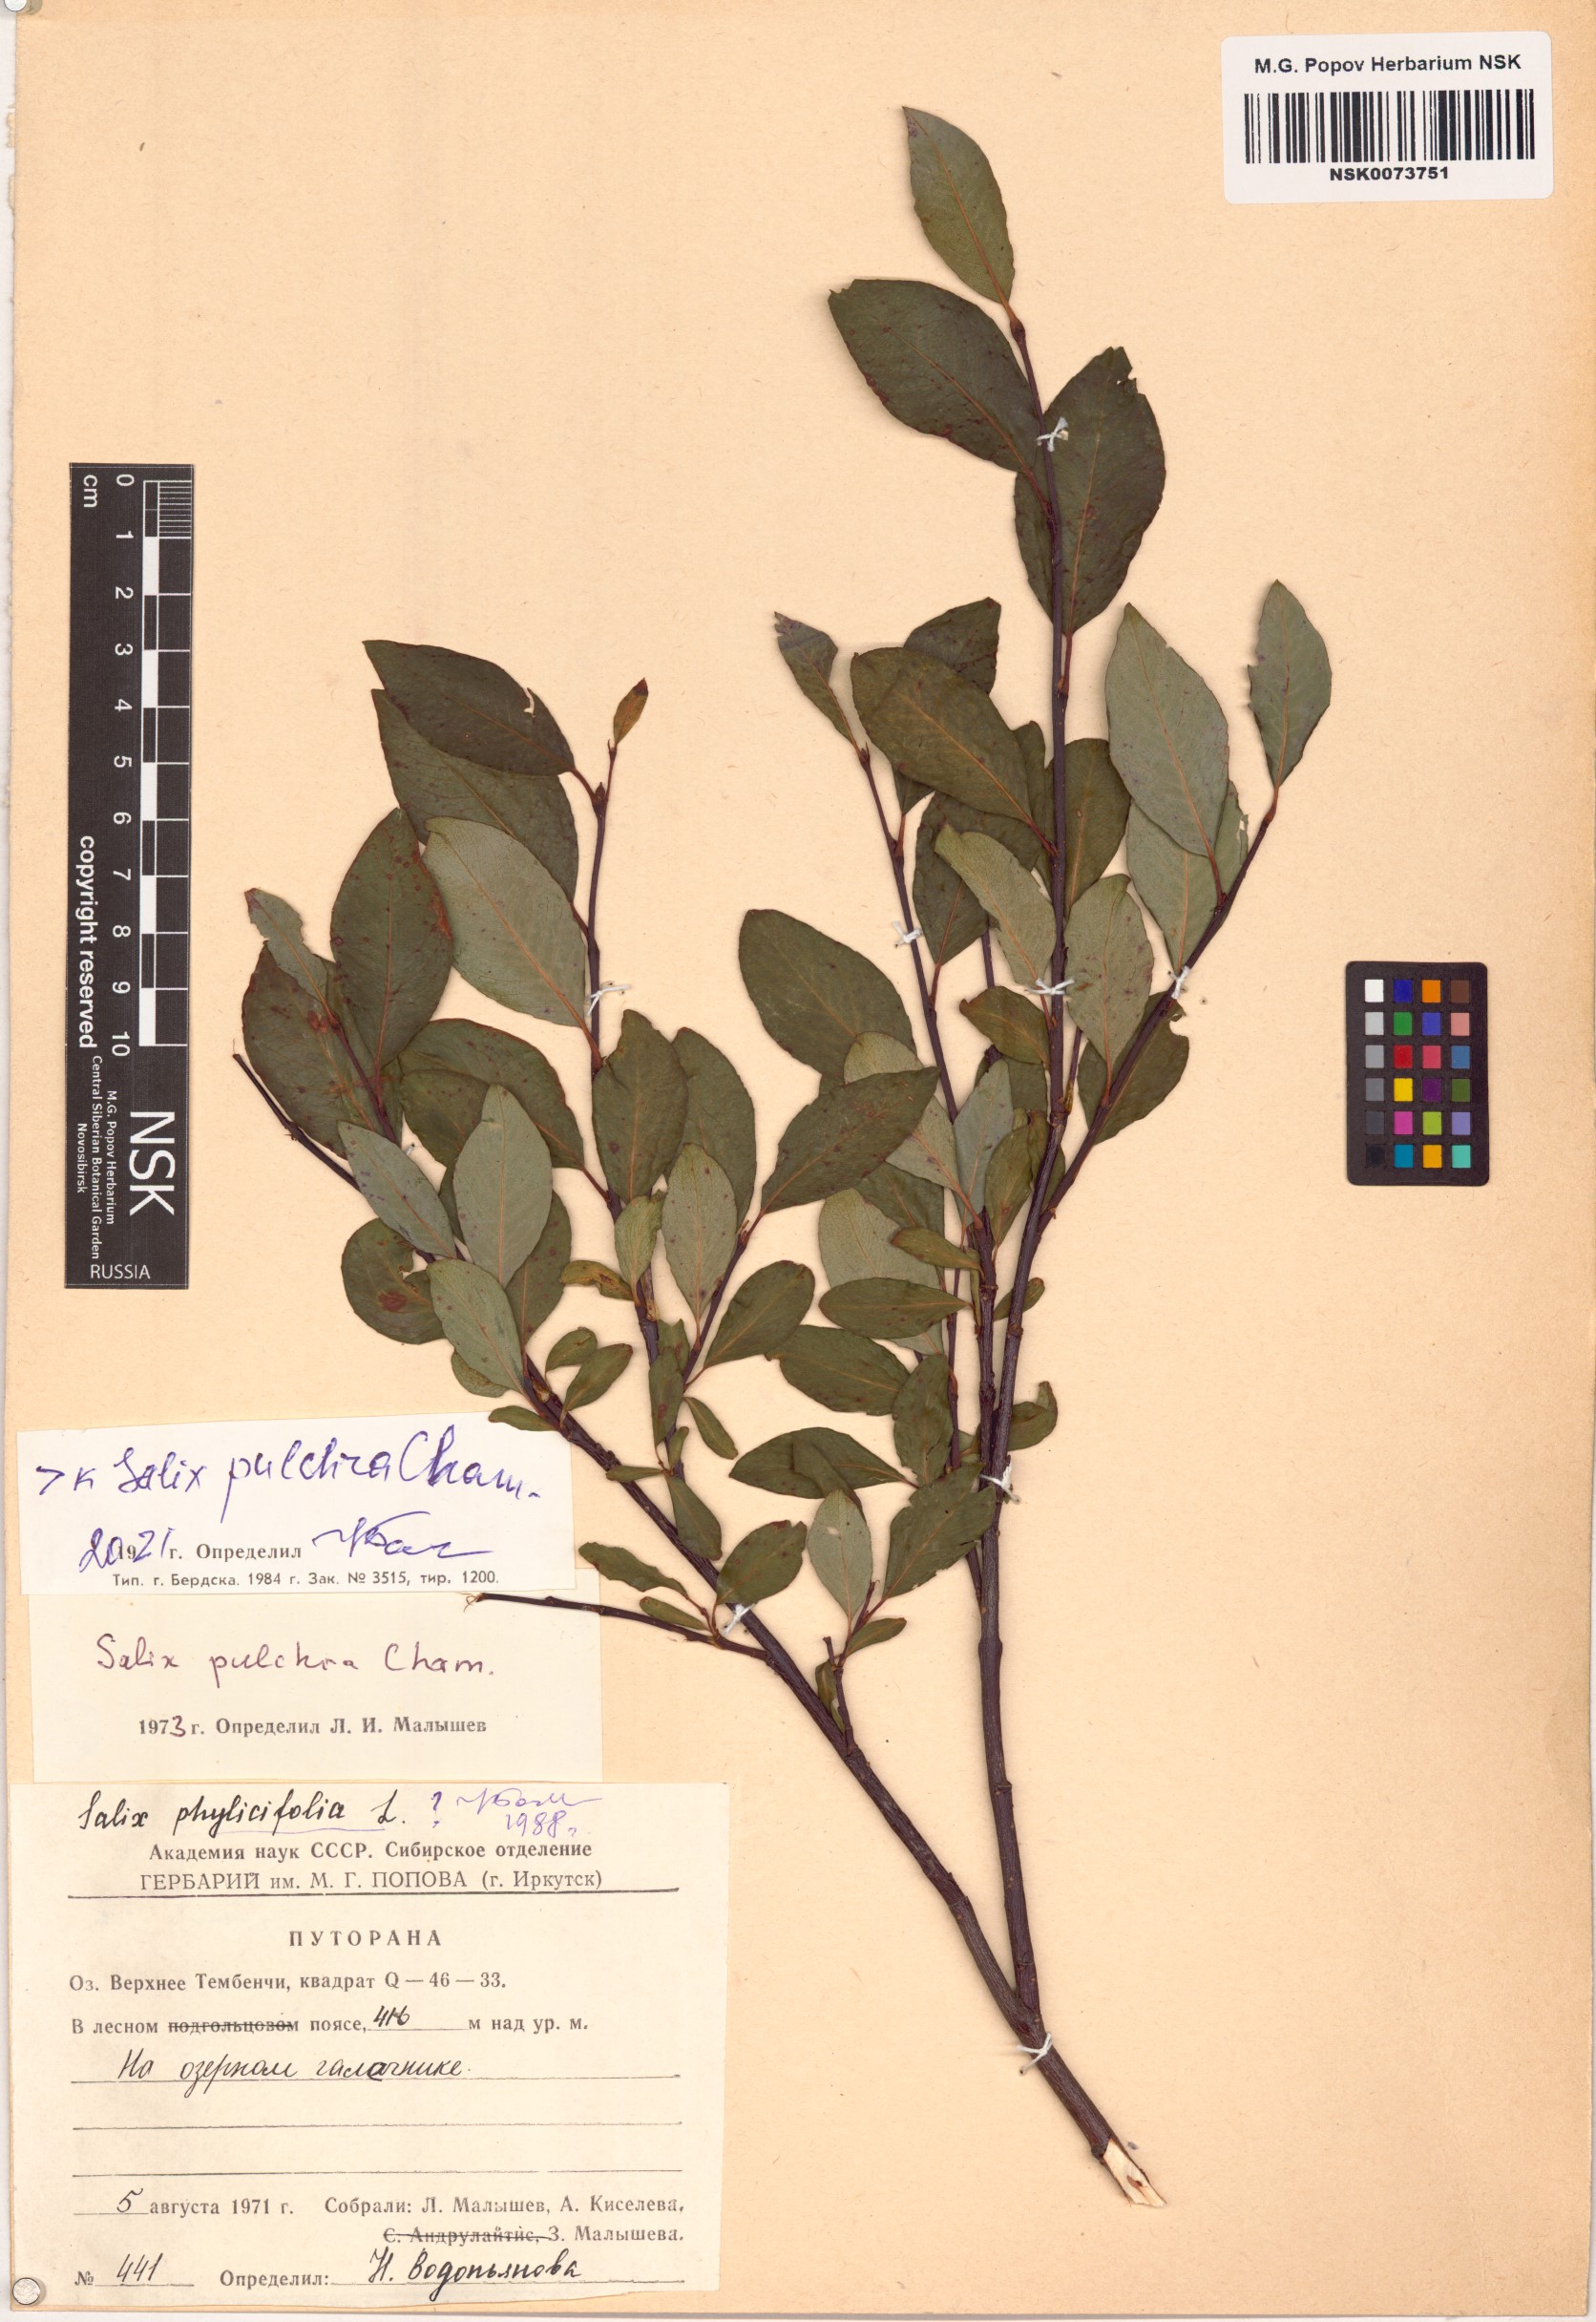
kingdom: Plantae
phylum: Tracheophyta
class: Magnoliopsida
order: Malpighiales
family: Salicaceae
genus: Salix
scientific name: Salix pulchra
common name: Diamond-leaved willow
